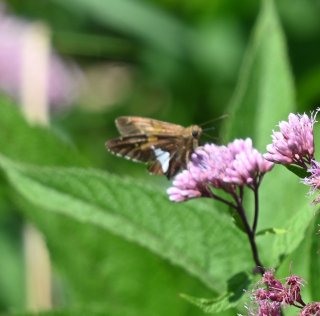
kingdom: Animalia
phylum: Arthropoda
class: Insecta
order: Lepidoptera
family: Hesperiidae
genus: Epargyreus
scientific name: Epargyreus clarus
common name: Silver-spotted Skipper
